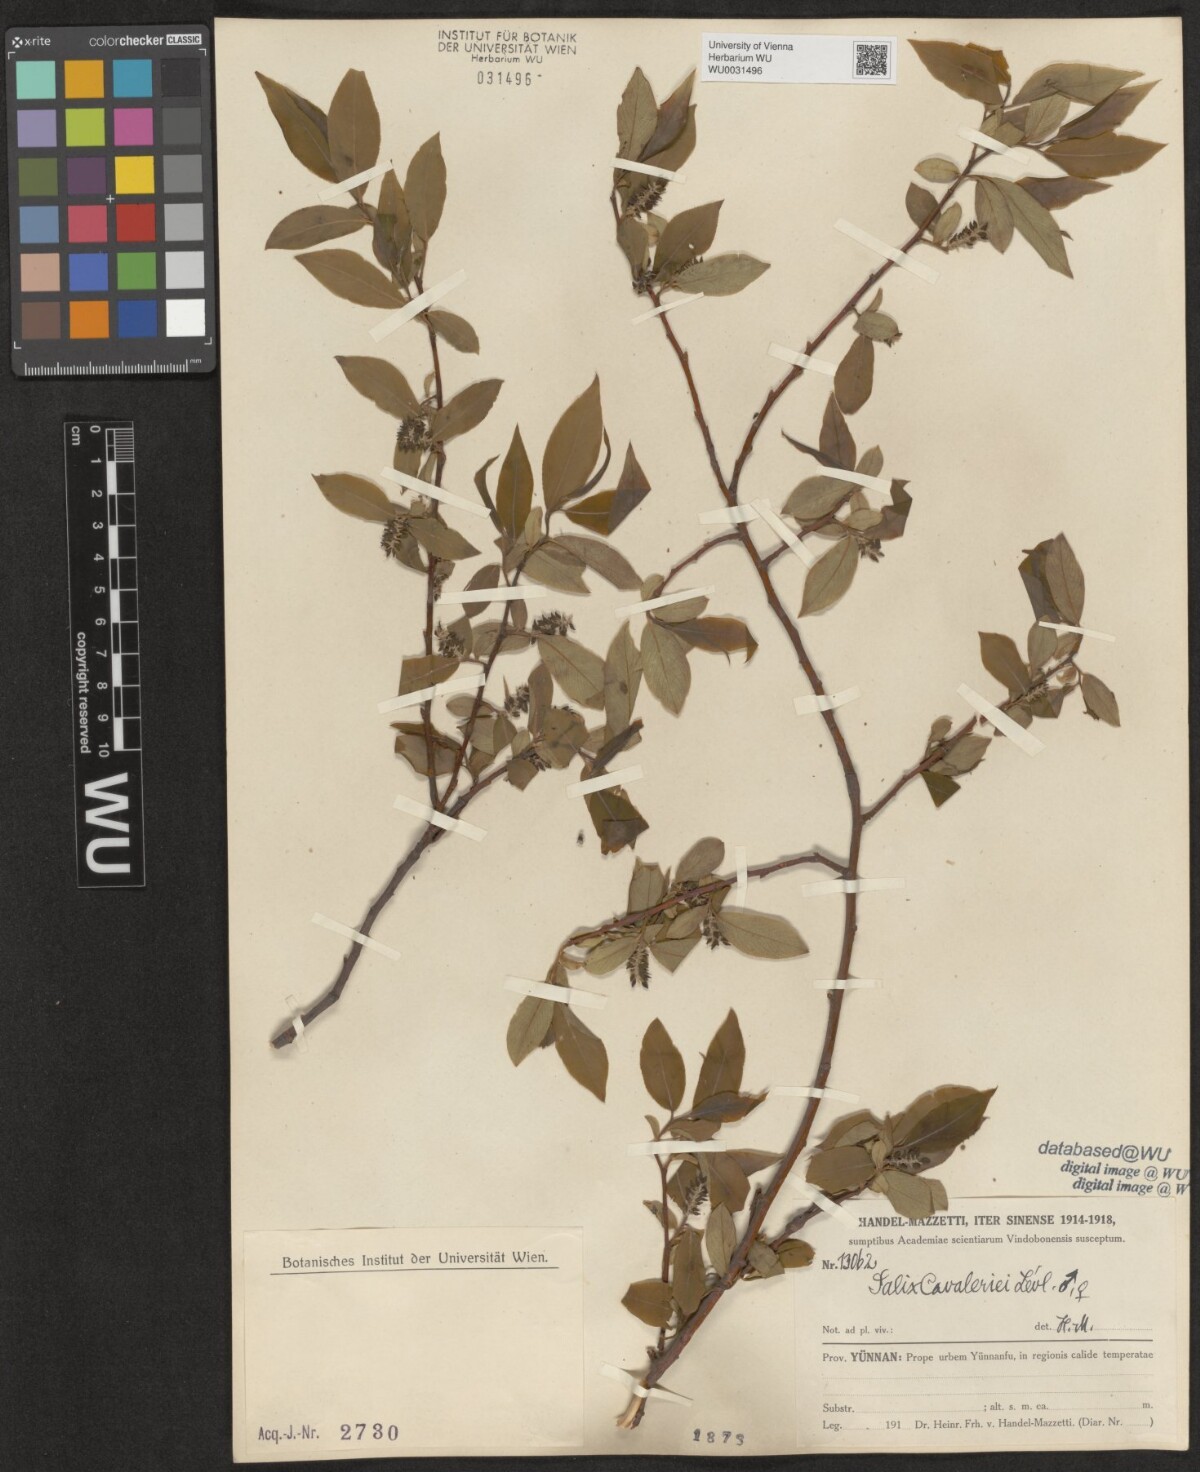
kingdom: Plantae
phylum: Tracheophyta
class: Magnoliopsida
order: Malpighiales
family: Salicaceae
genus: Salix
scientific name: Salix cavaleriei
